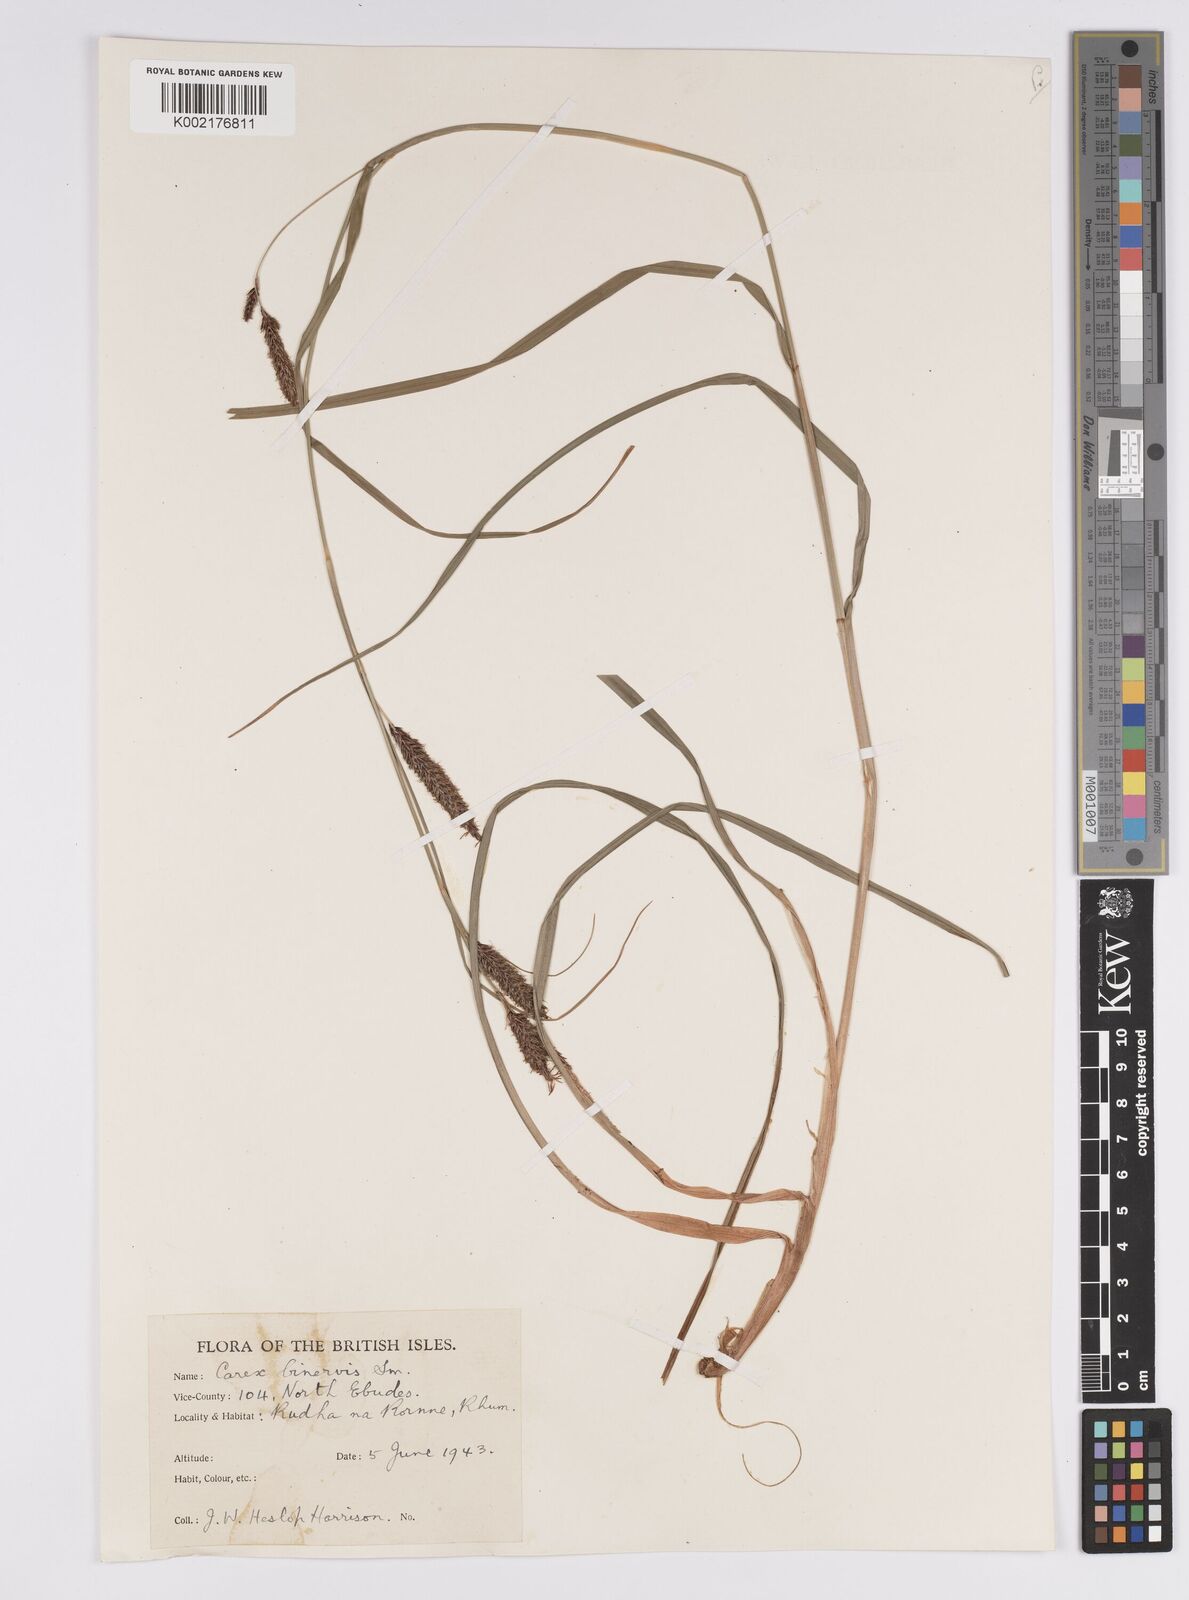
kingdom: Plantae
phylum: Tracheophyta
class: Liliopsida
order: Poales
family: Cyperaceae
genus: Carex
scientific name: Carex binervis
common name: Green-ribbed sedge
